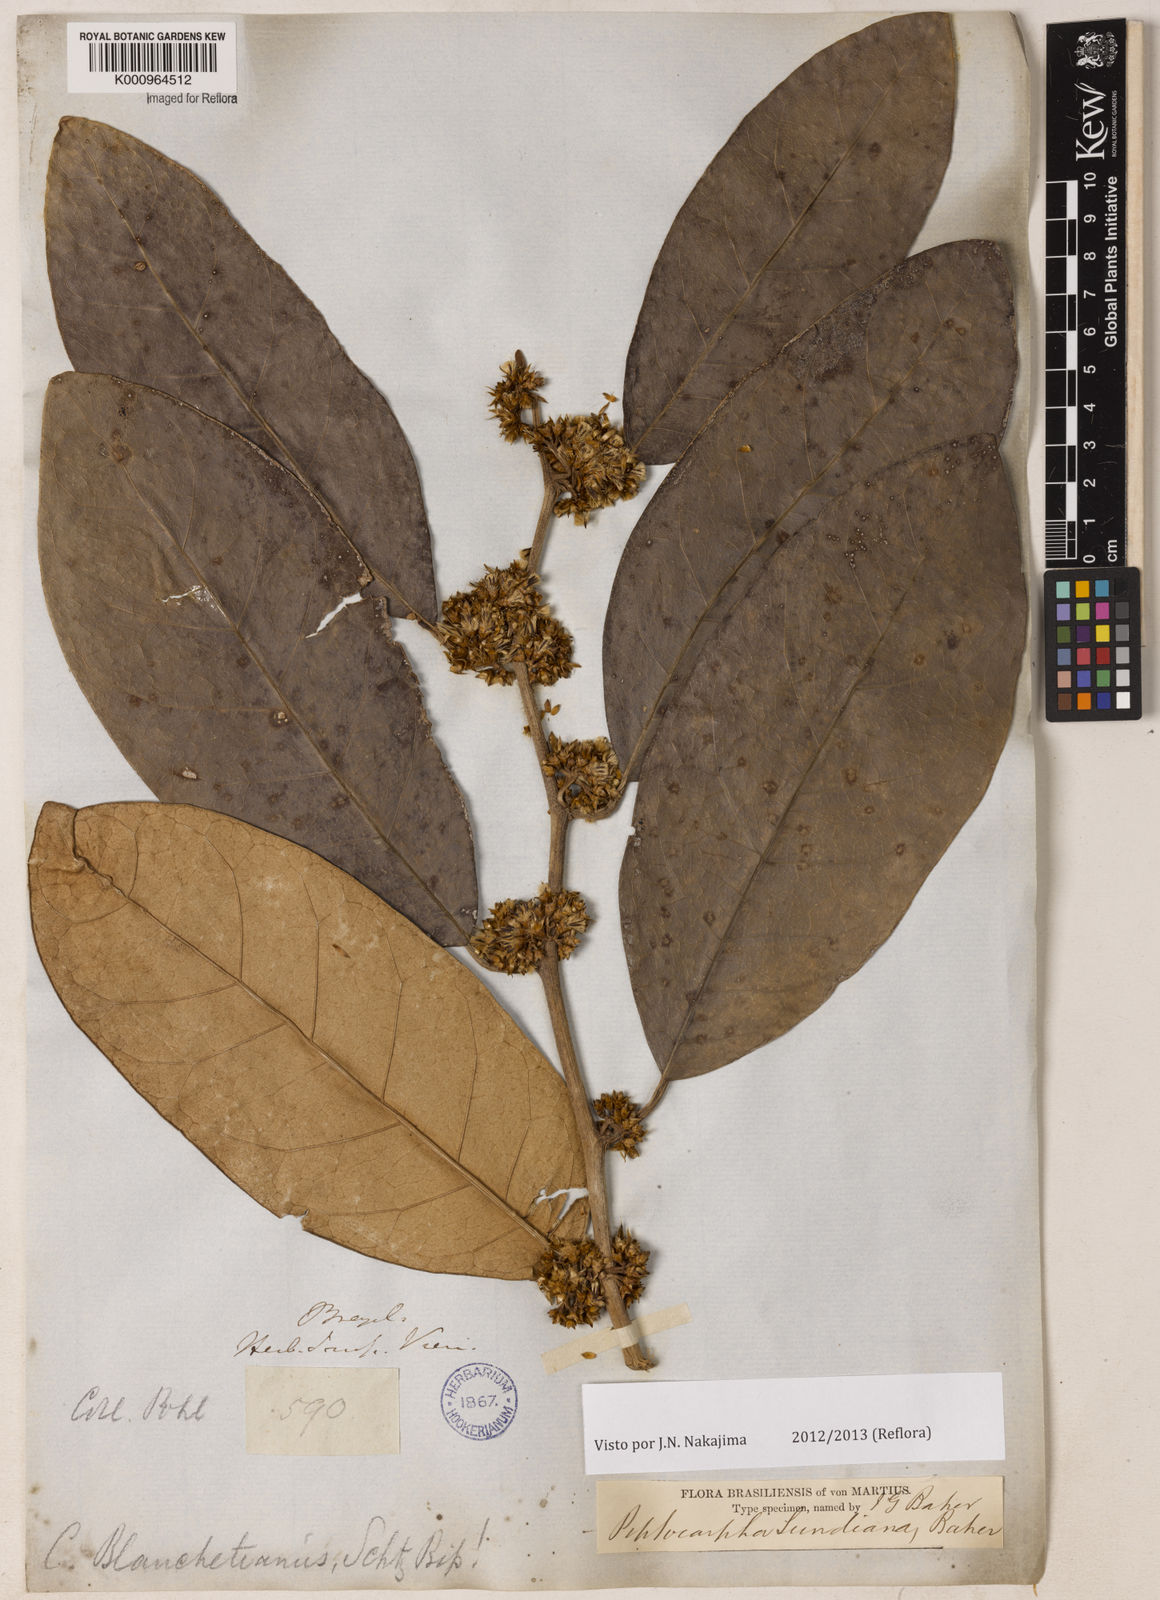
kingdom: Plantae
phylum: Tracheophyta
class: Magnoliopsida
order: Asterales
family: Asteraceae
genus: Piptocarpha
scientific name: Piptocarpha lundiana
